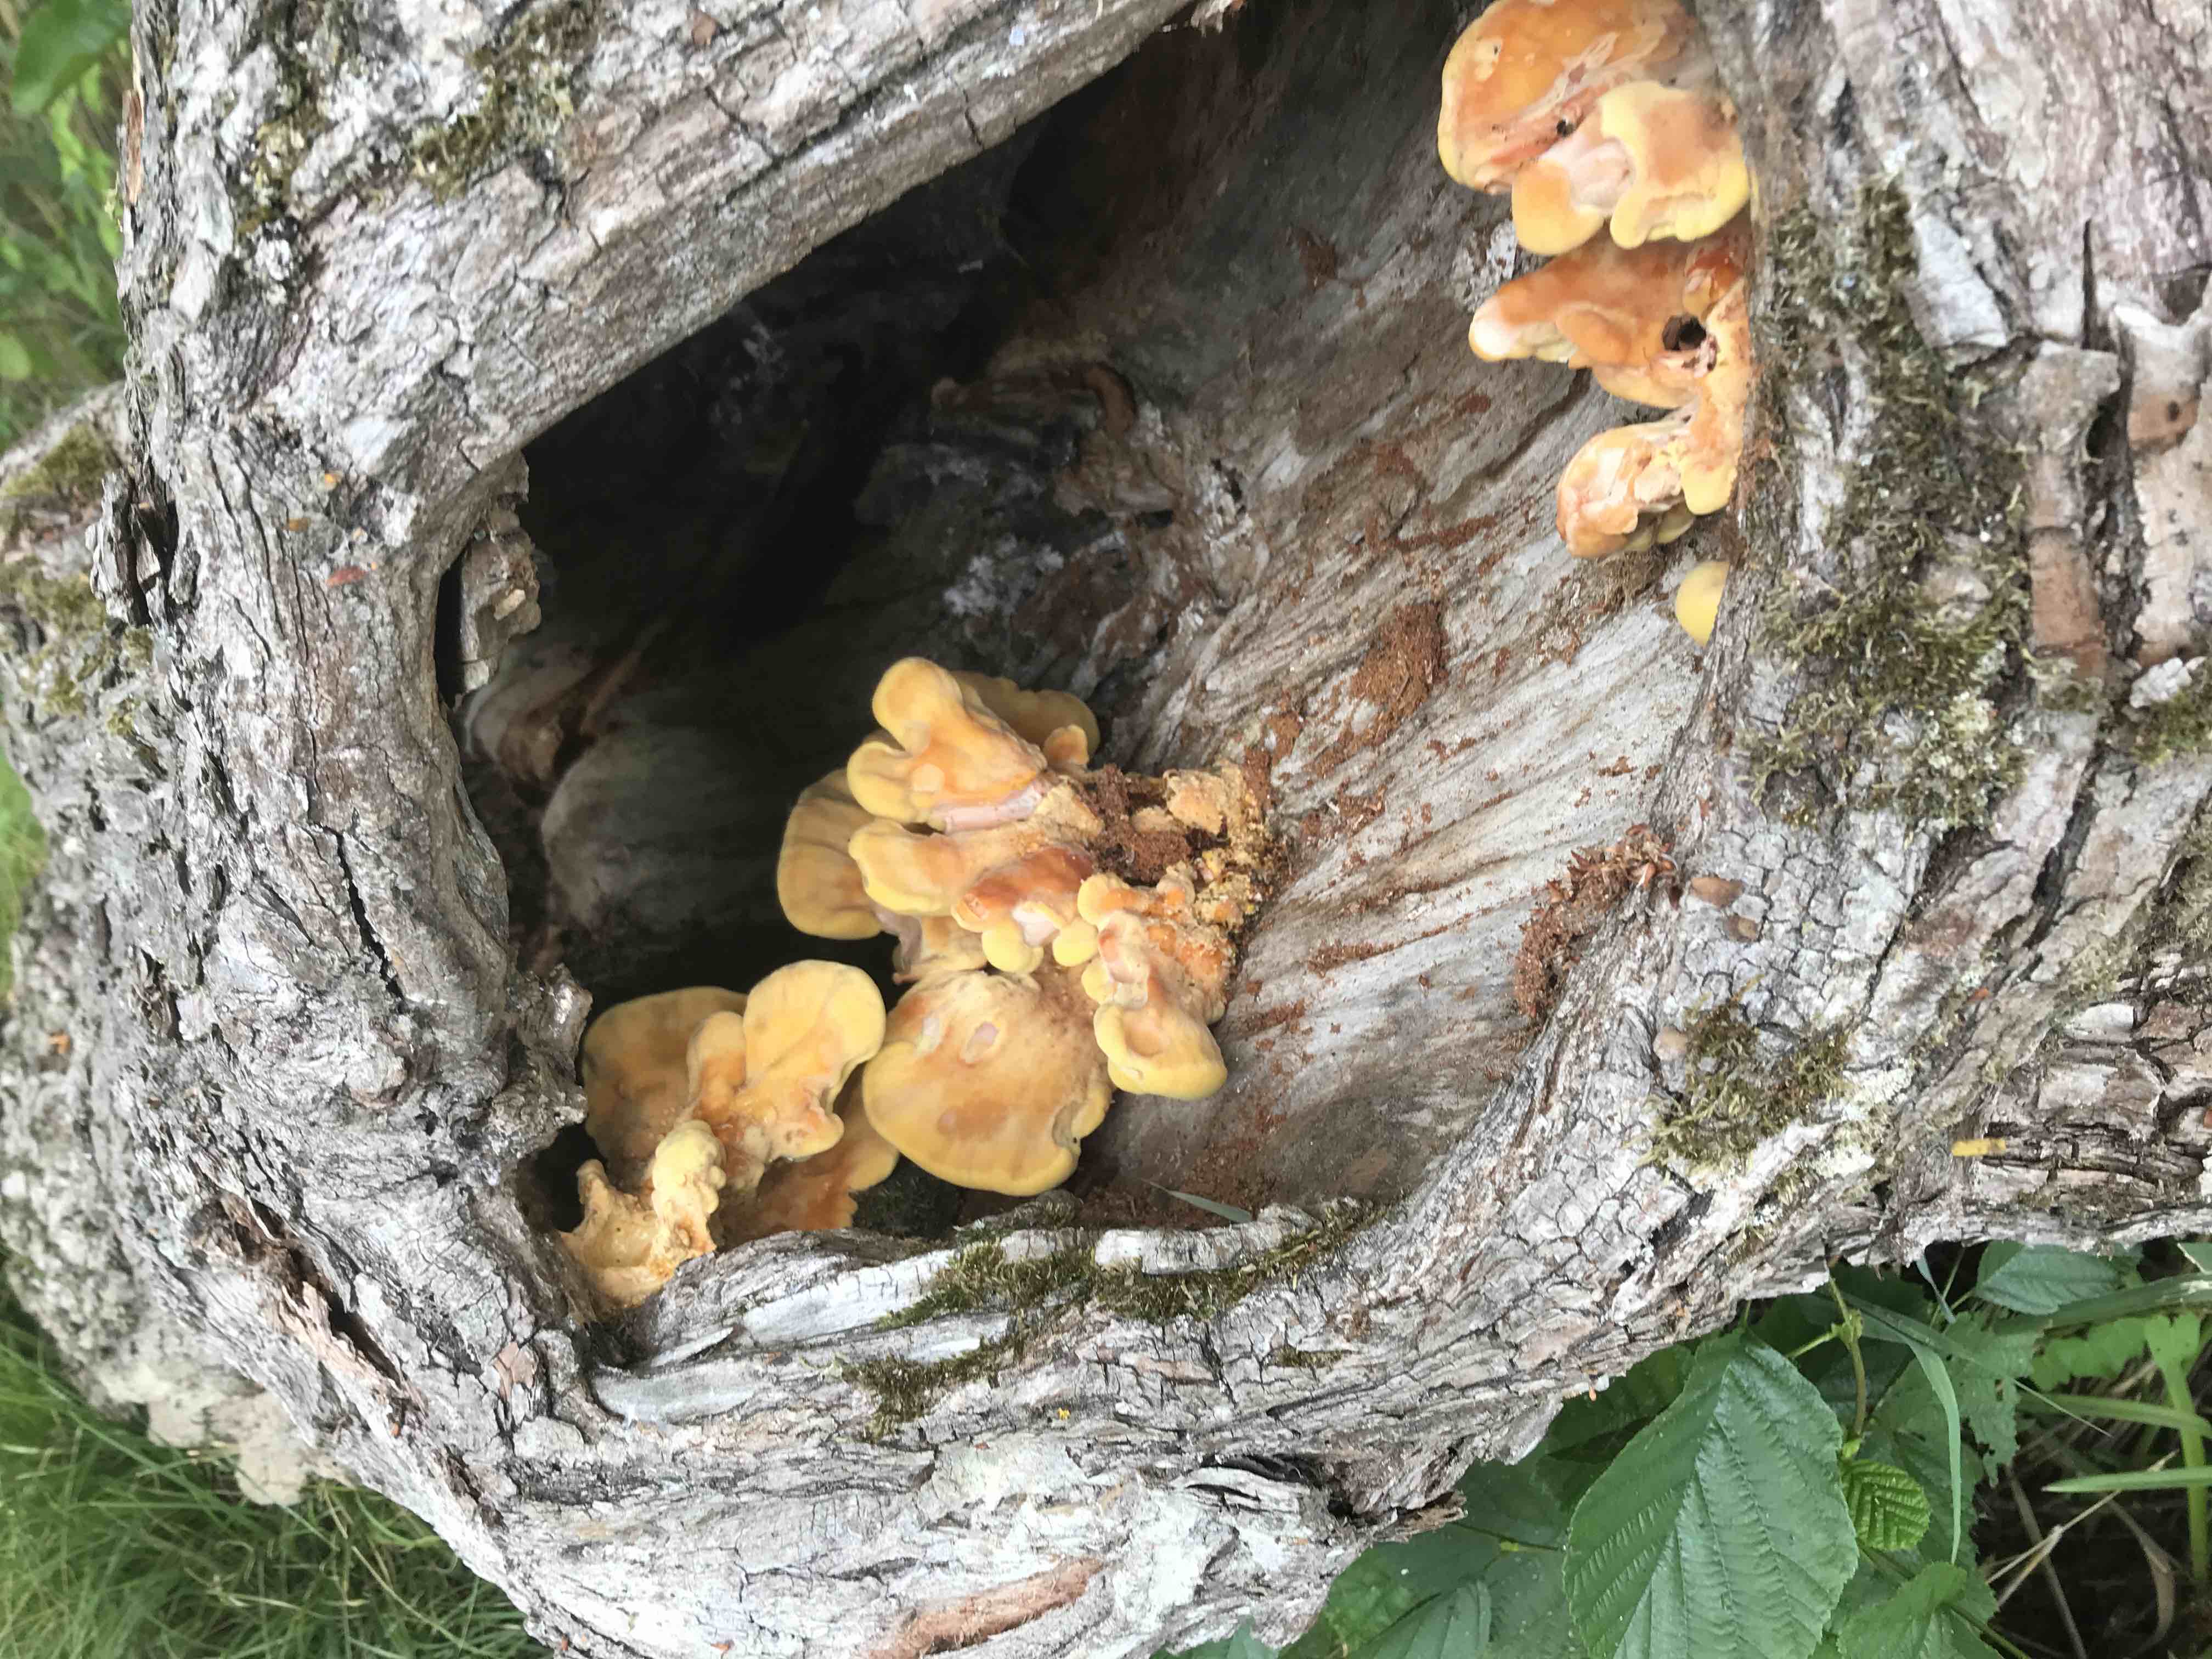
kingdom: Fungi
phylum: Basidiomycota
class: Agaricomycetes
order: Polyporales
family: Laetiporaceae
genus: Laetiporus
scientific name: Laetiporus sulphureus
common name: svovlporesvamp
